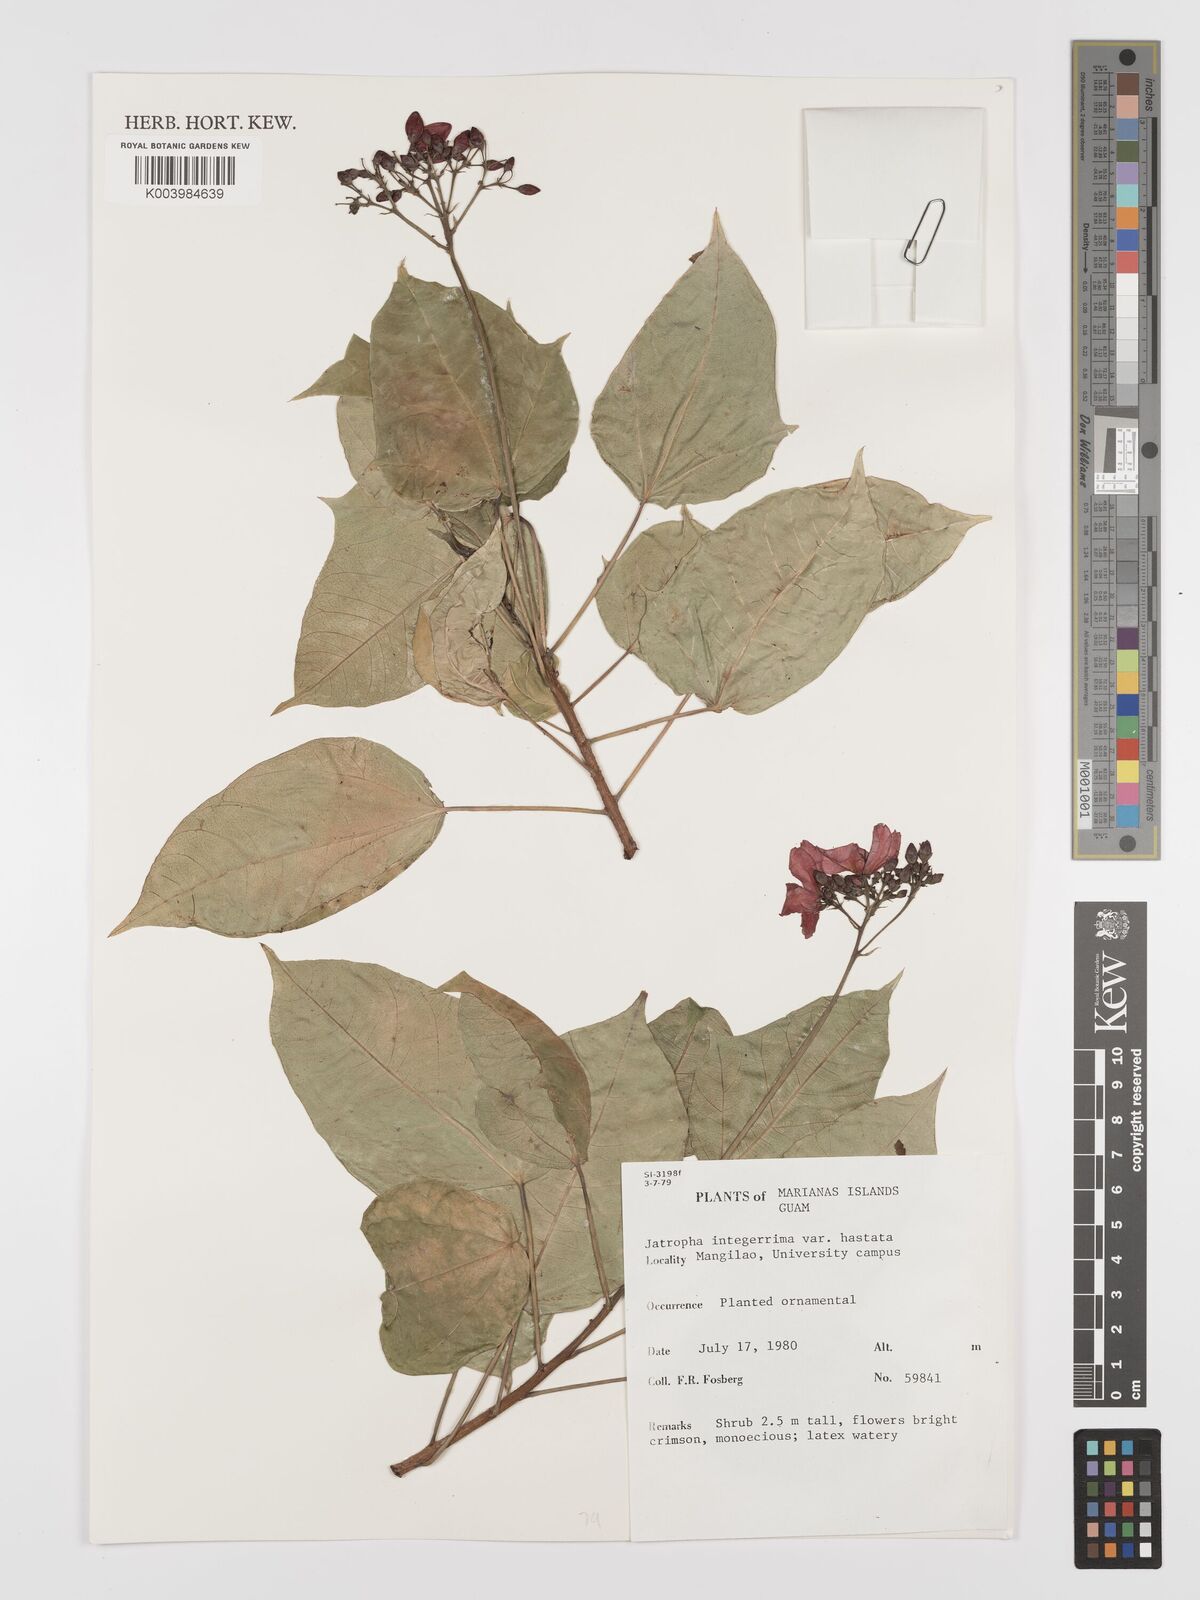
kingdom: Plantae
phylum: Tracheophyta
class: Magnoliopsida
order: Malpighiales
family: Euphorbiaceae
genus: Jatropha
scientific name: Jatropha integerrima
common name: Peregrina
